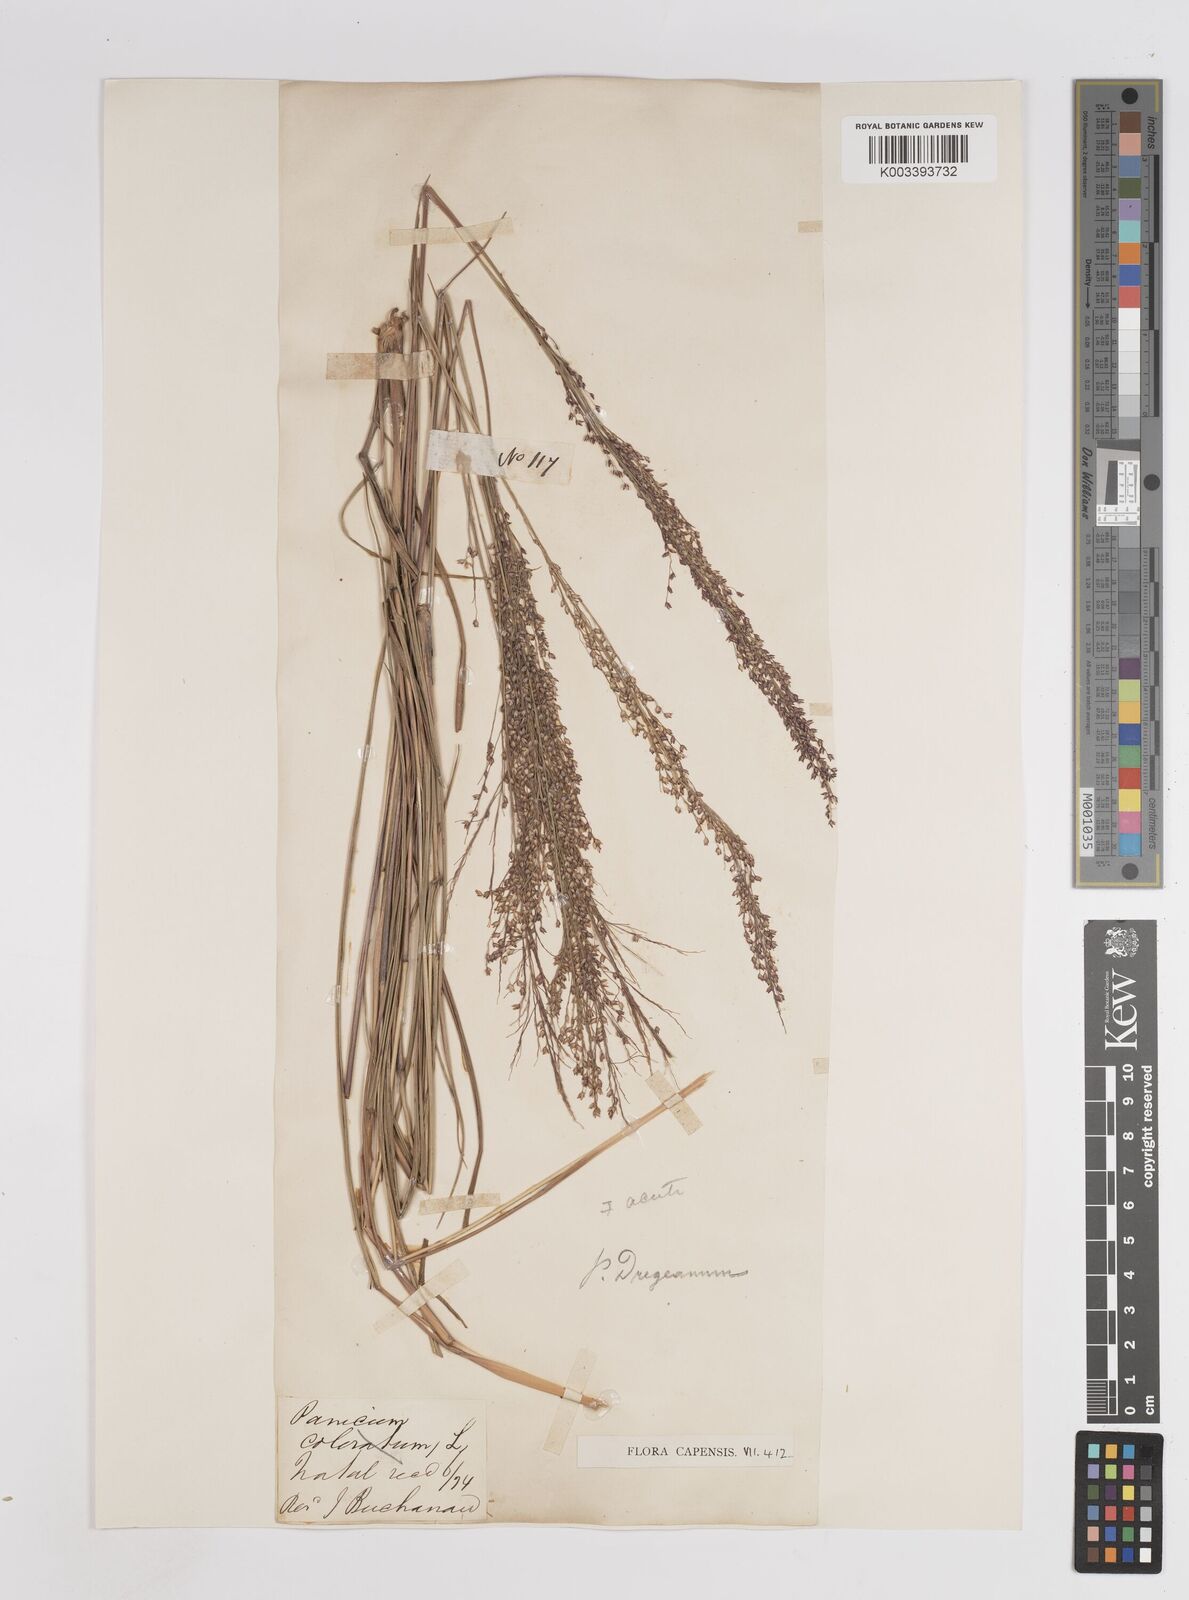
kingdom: Plantae
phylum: Tracheophyta
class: Liliopsida
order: Poales
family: Poaceae
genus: Panicum
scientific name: Panicum dregeanum
